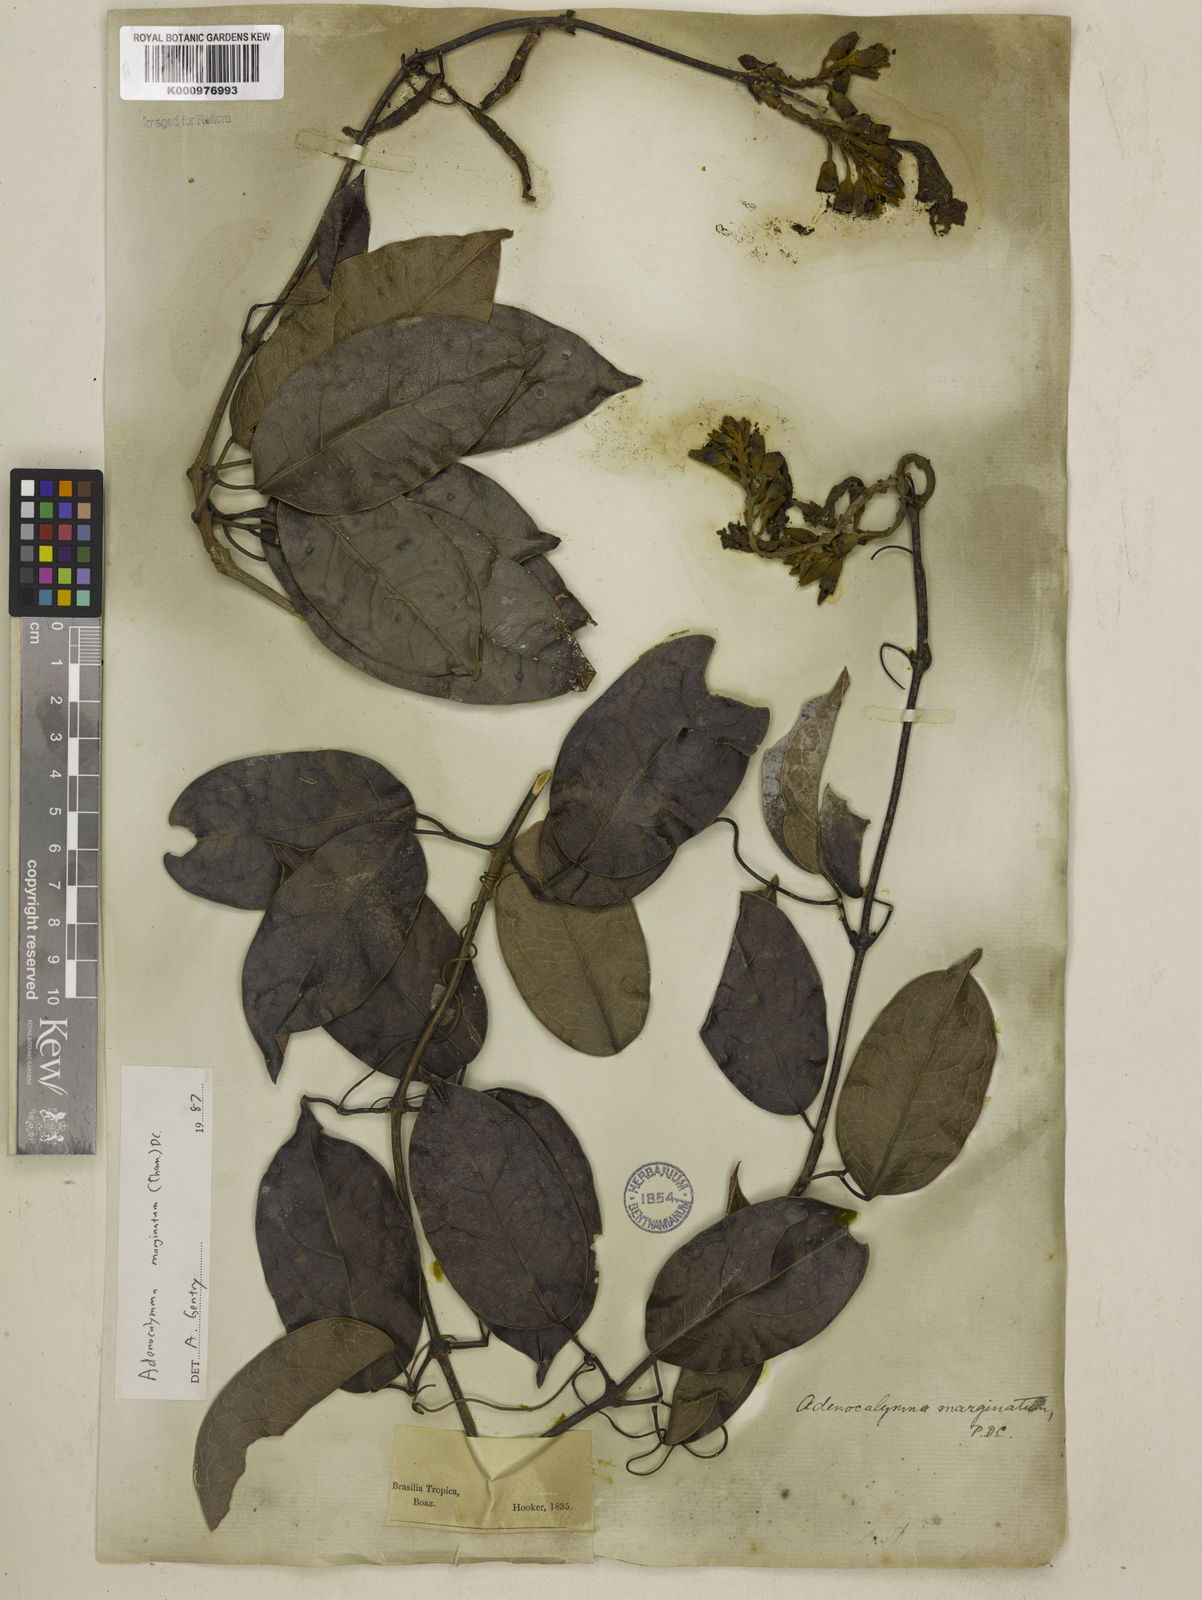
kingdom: Plantae
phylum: Tracheophyta
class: Magnoliopsida
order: Lamiales
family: Bignoniaceae
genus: Adenocalymma
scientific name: Adenocalymma marginatum
